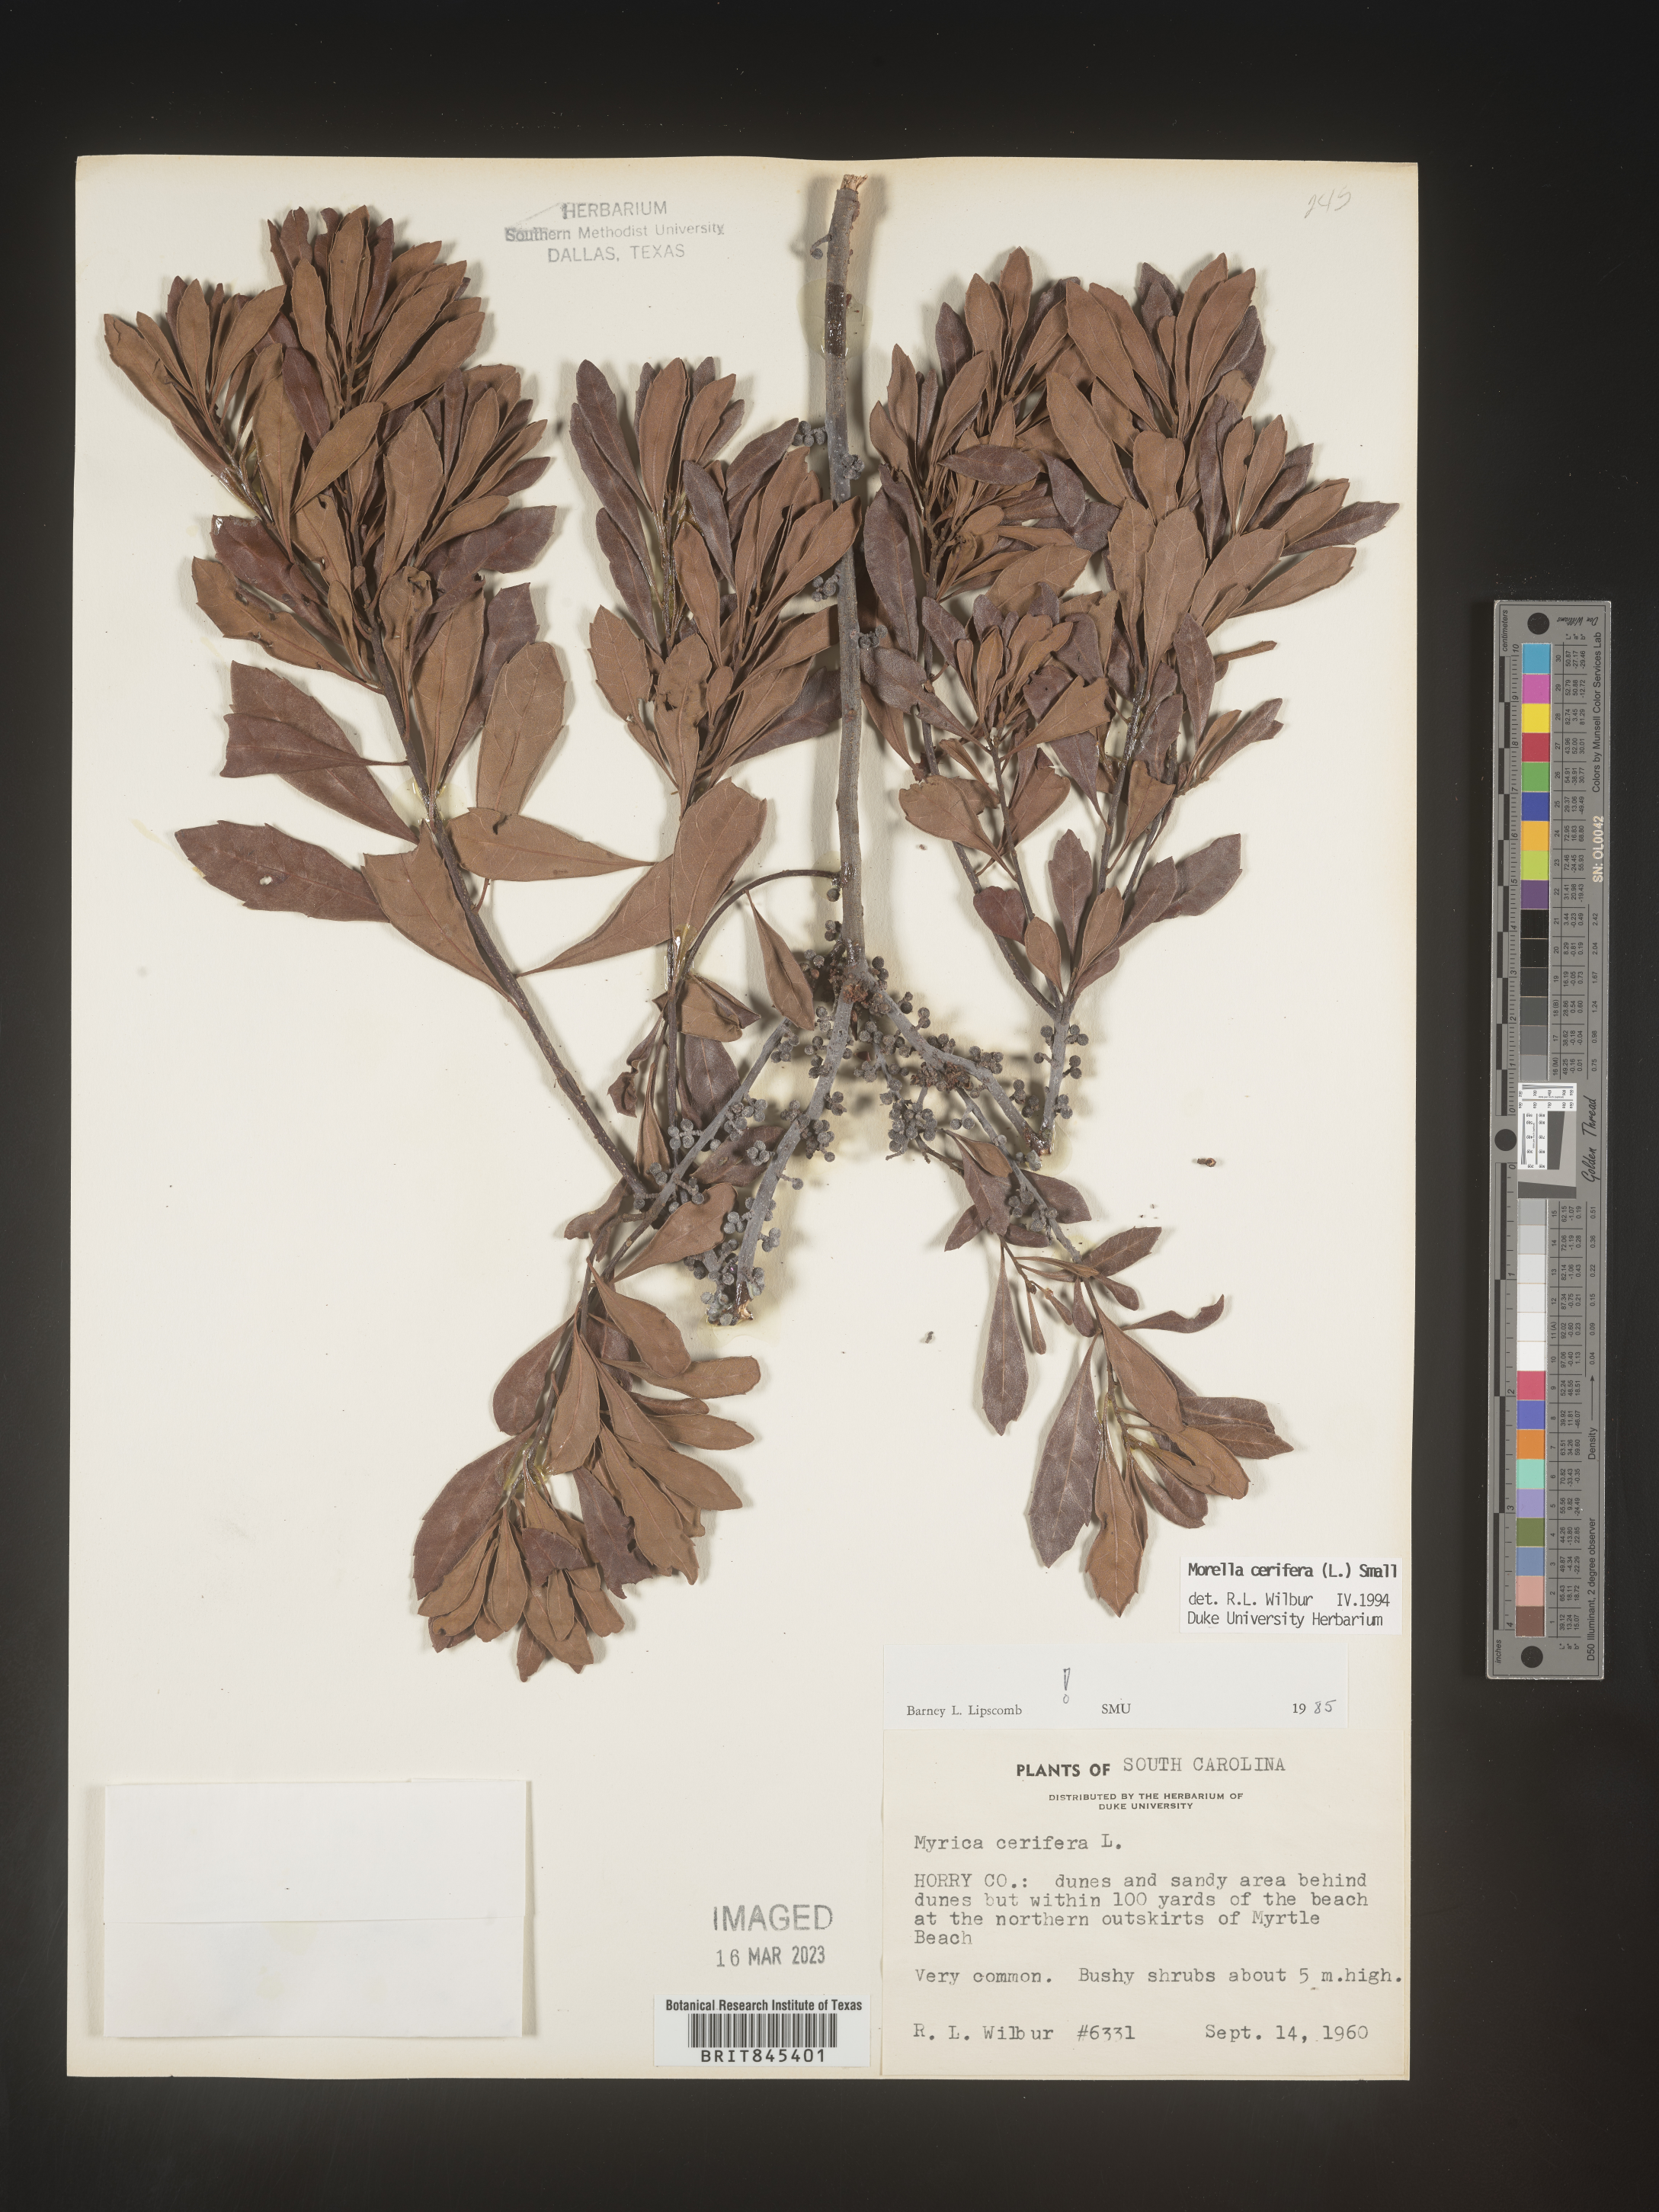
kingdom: Plantae
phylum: Tracheophyta
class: Magnoliopsida
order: Fagales
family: Myricaceae
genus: Morella
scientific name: Morella cerifera
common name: Wax myrtle
